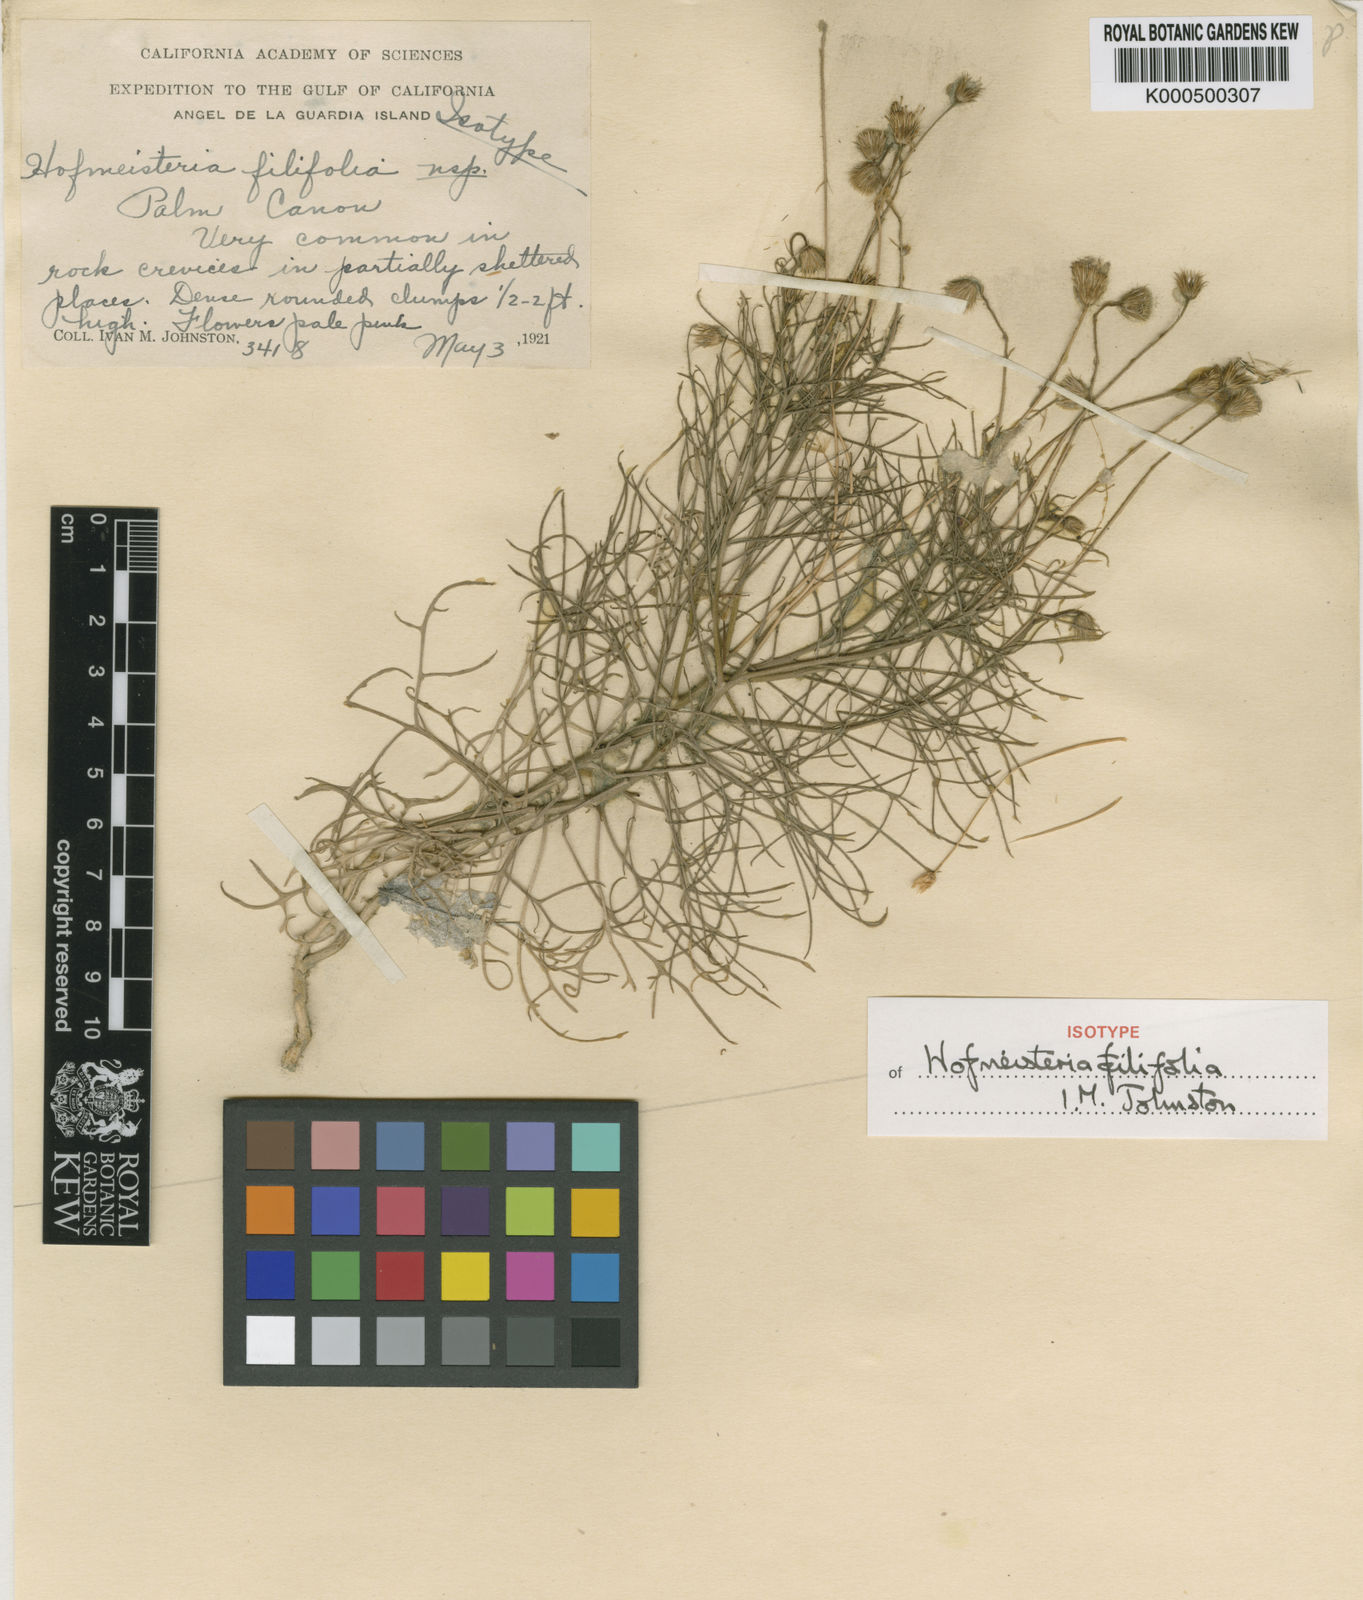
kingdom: Plantae
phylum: Tracheophyta
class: Magnoliopsida
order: Asterales
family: Asteraceae
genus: Hofmeisteria
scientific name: Hofmeisteria filifolia
